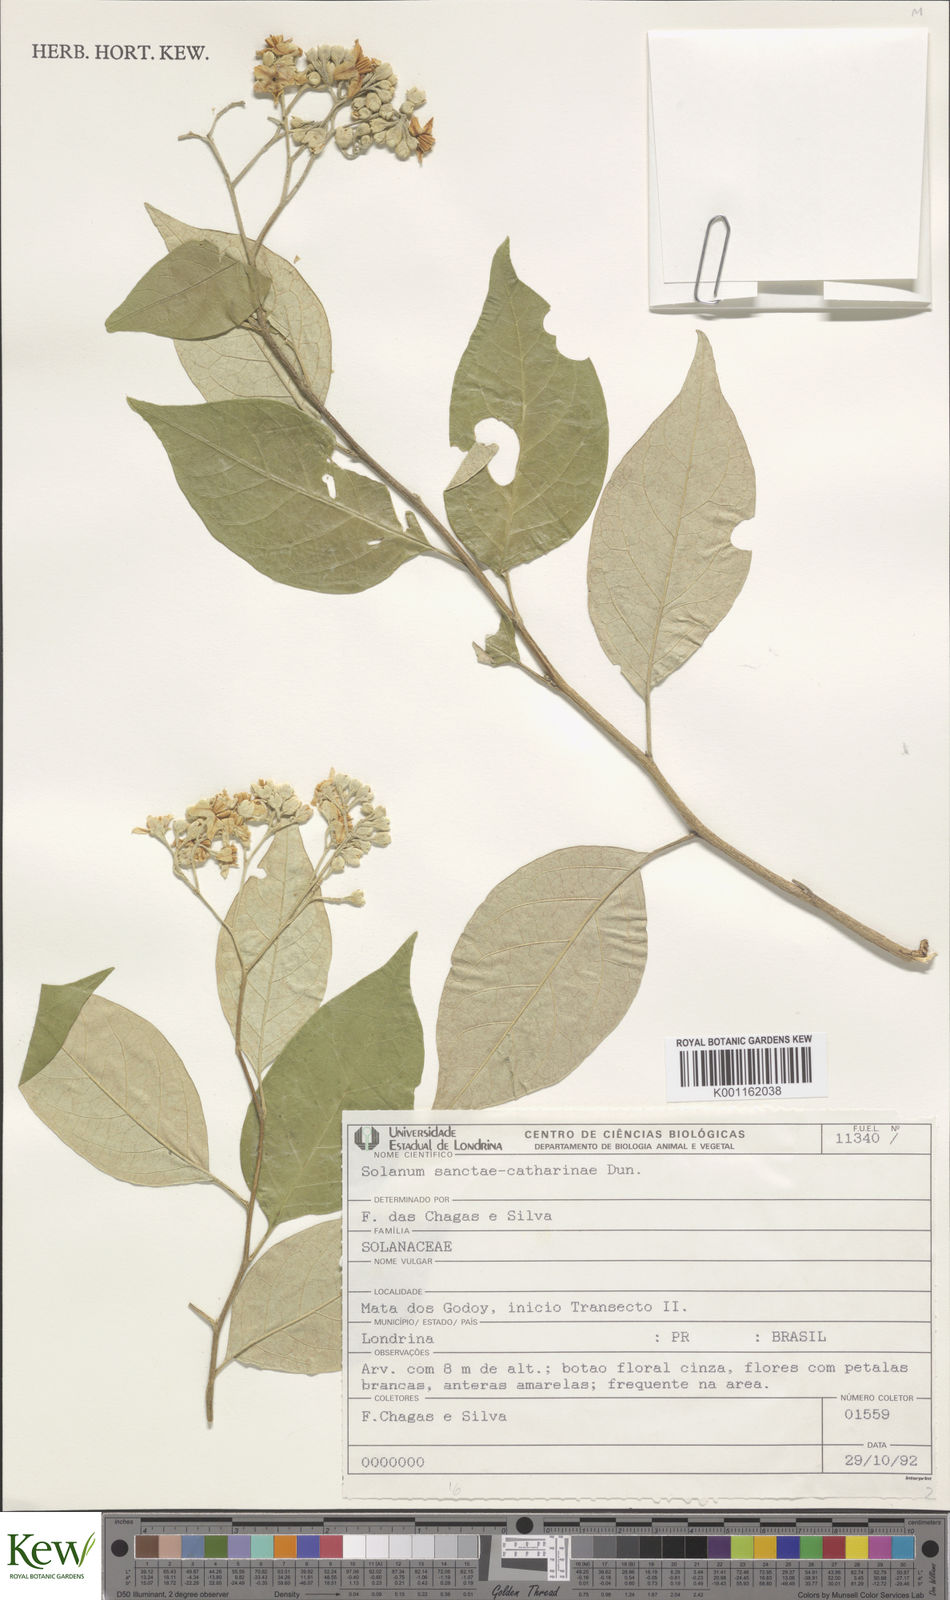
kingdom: Plantae
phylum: Tracheophyta
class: Magnoliopsida
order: Solanales
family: Solanaceae
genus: Solanum
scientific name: Solanum sanctae-catharinae
